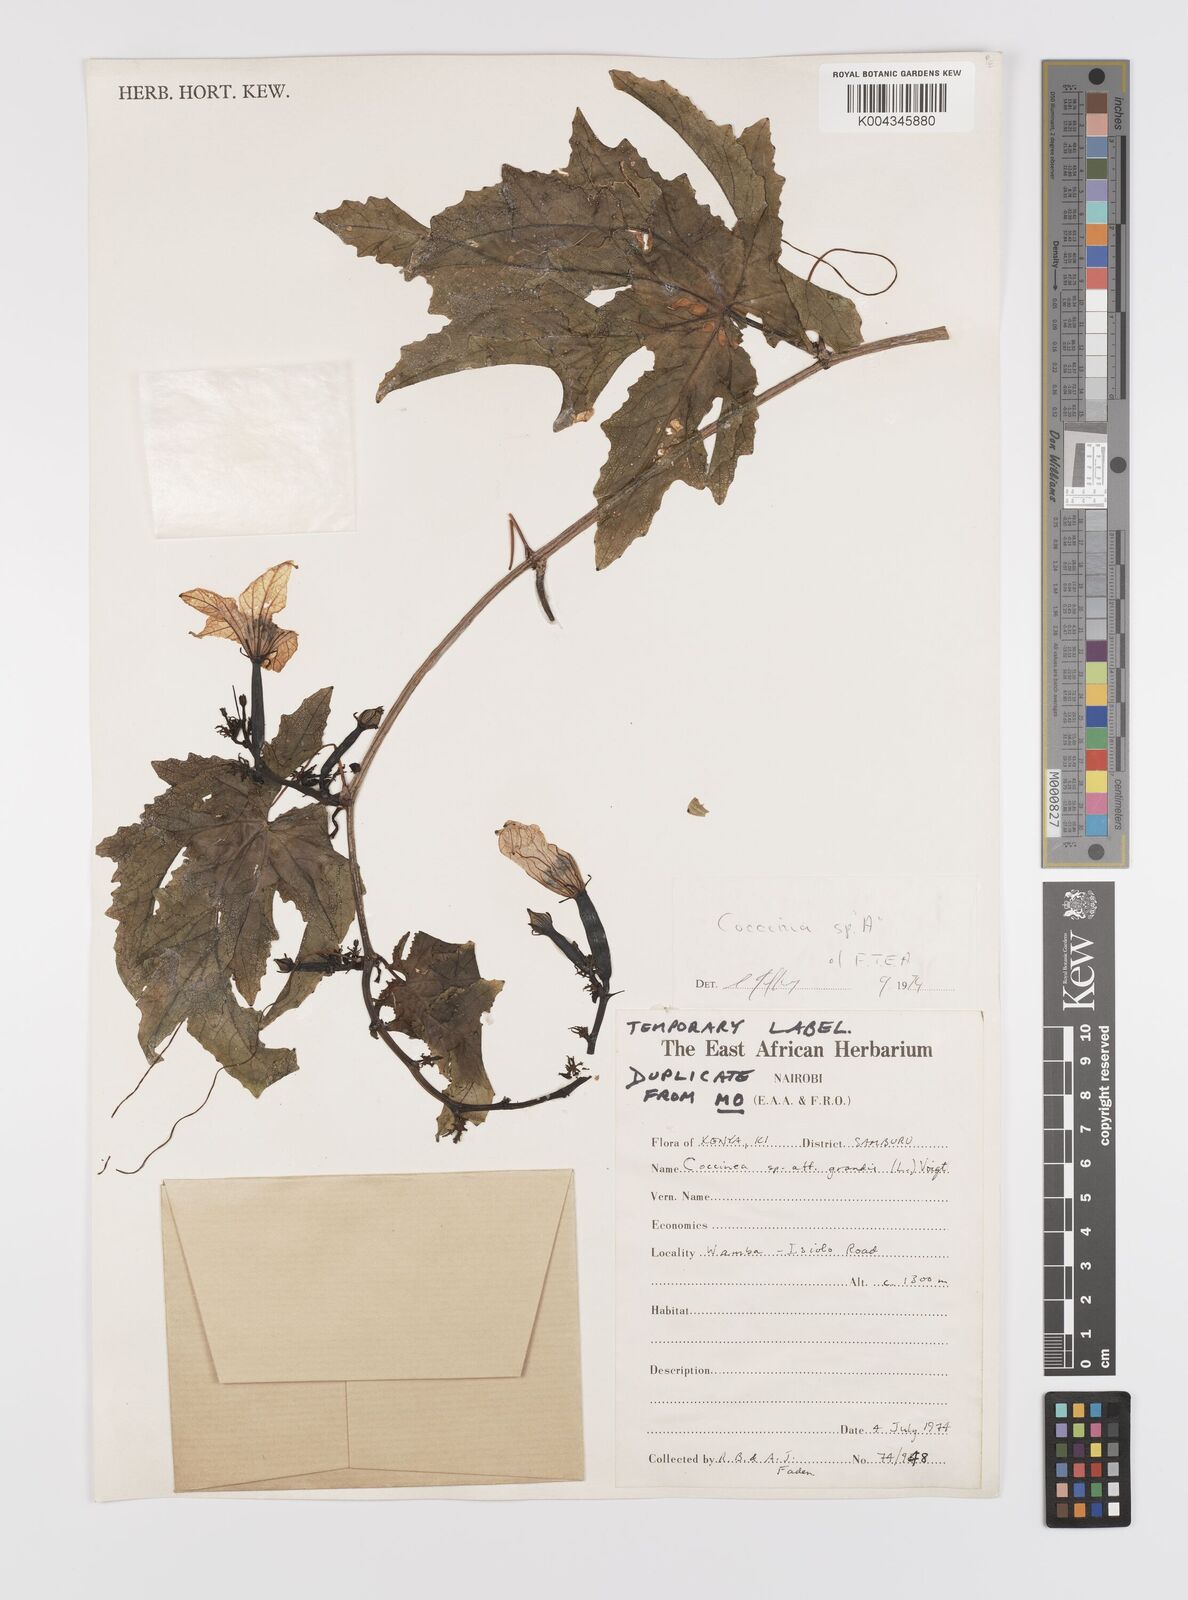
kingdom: Plantae
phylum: Tracheophyta
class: Magnoliopsida
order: Cucurbitales
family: Cucurbitaceae
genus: Coccinia
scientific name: Coccinia
